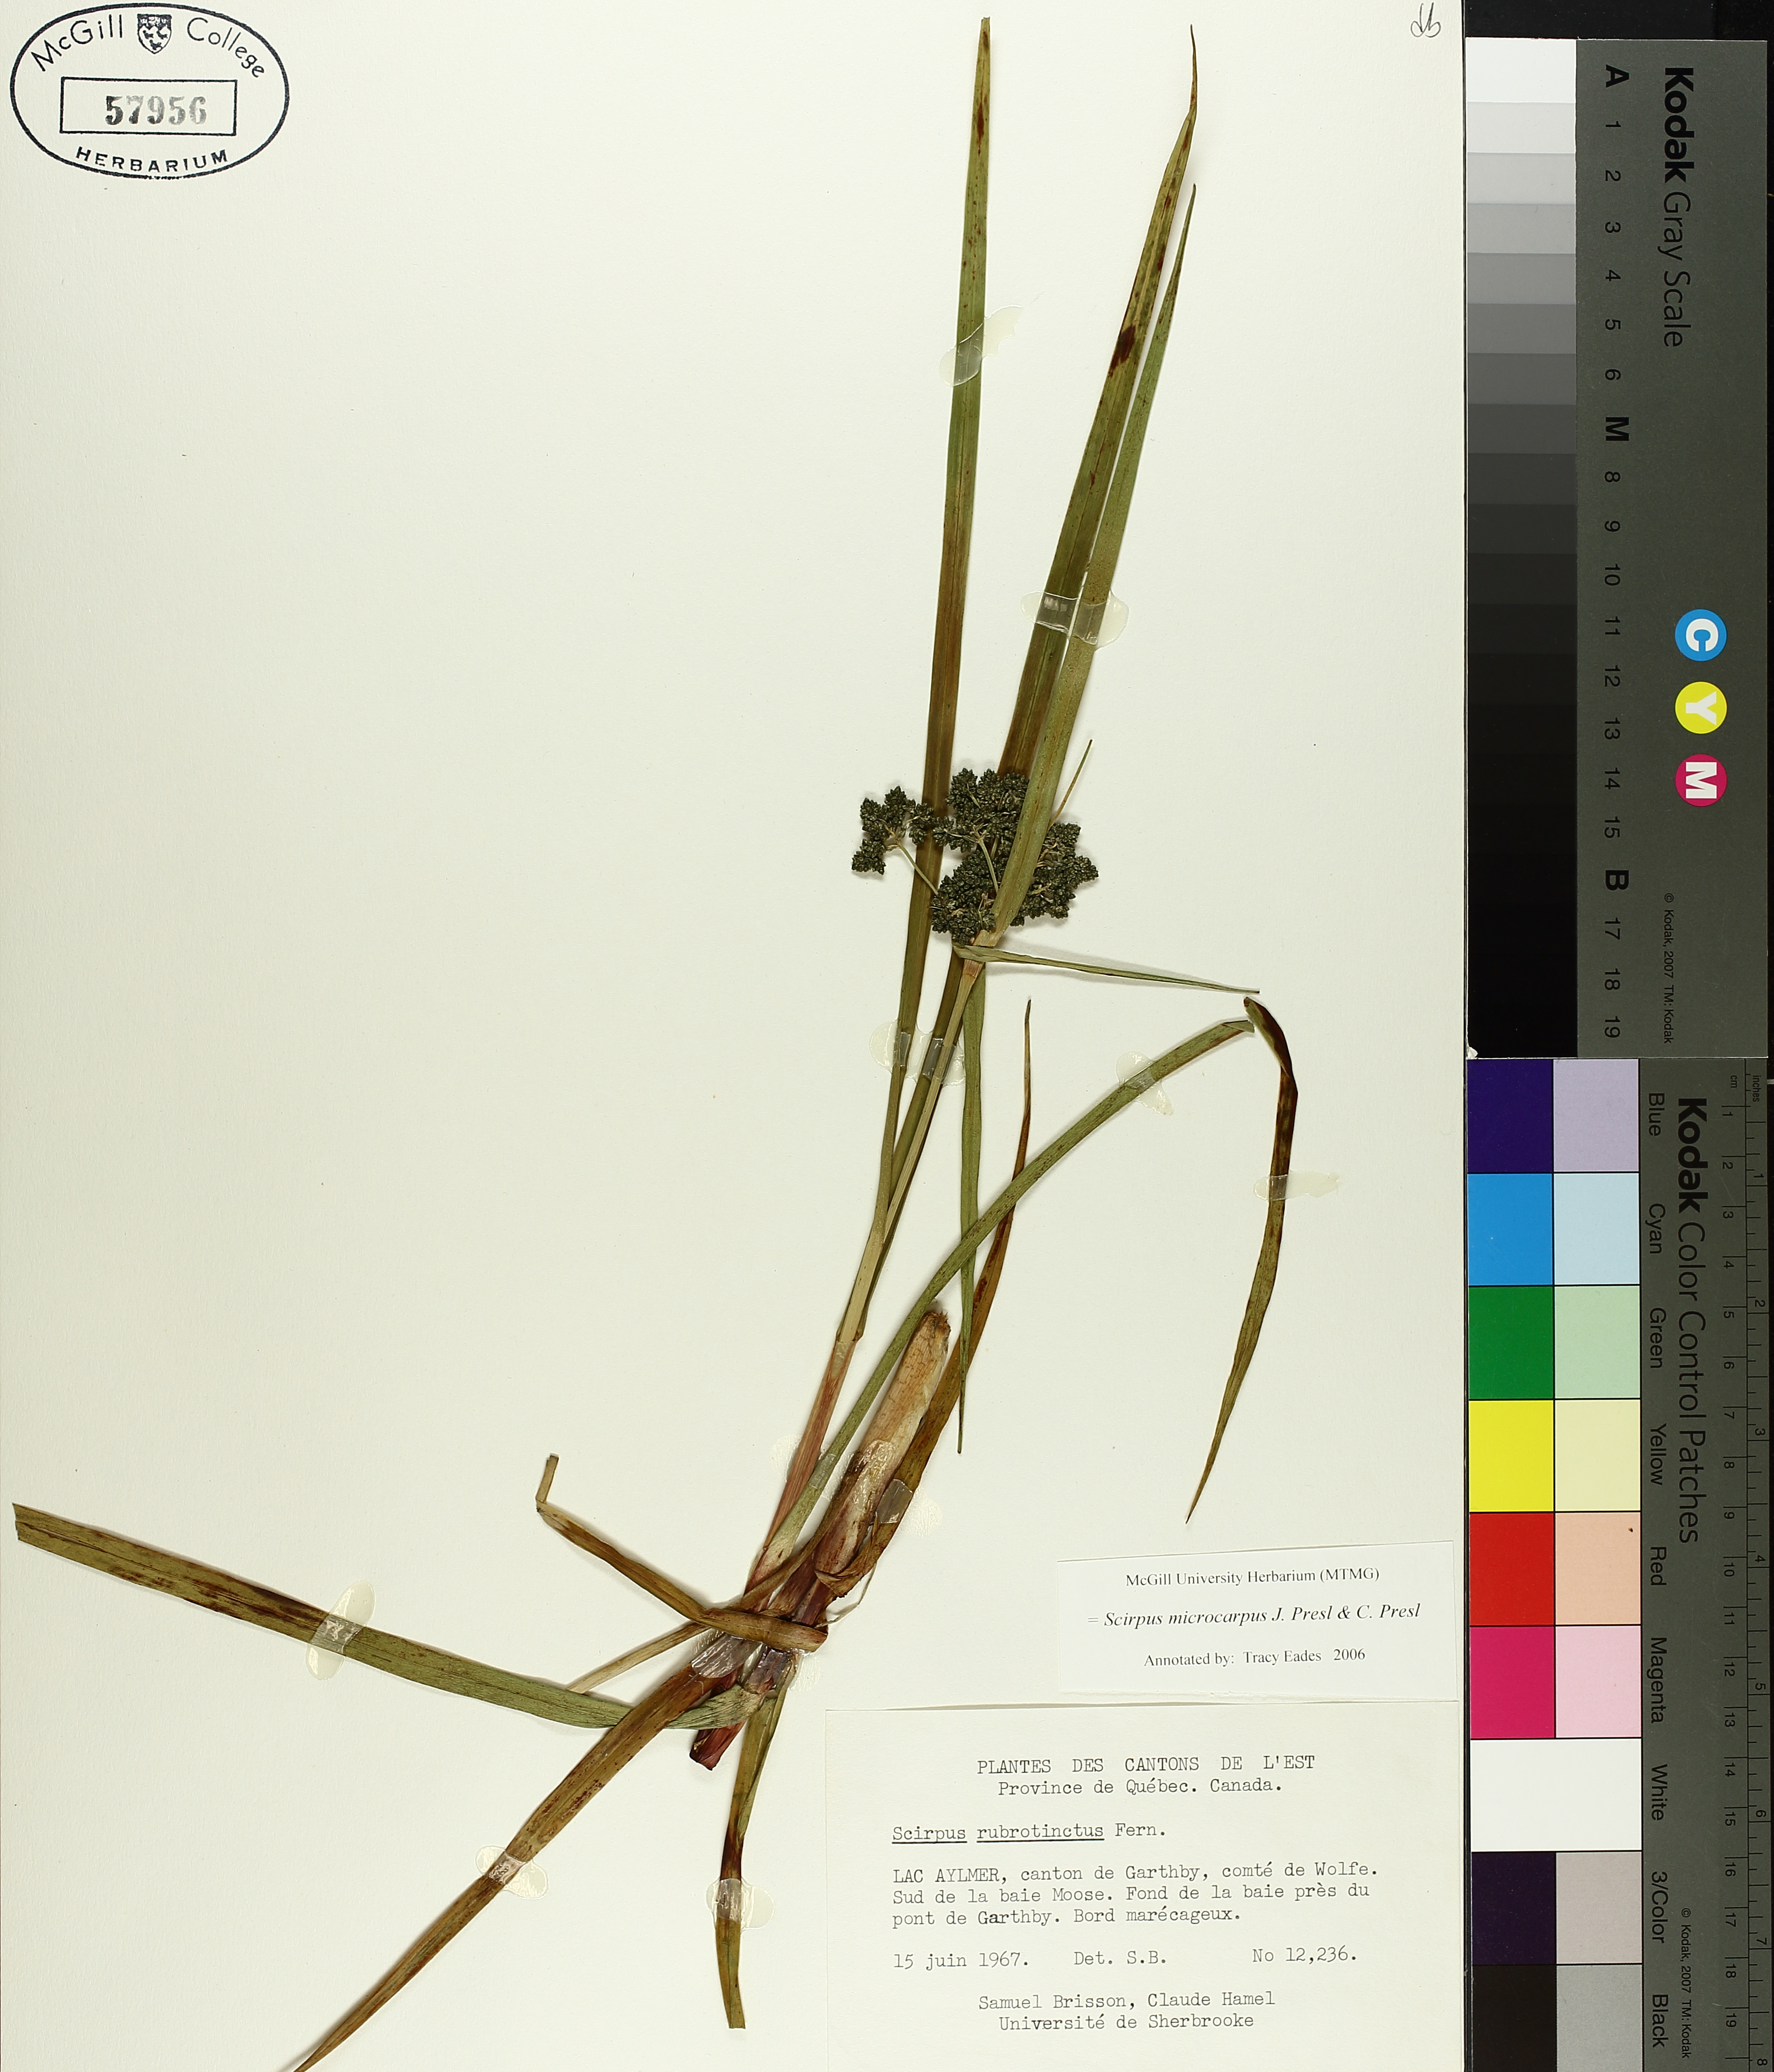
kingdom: Plantae
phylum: Tracheophyta
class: Liliopsida
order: Poales
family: Cyperaceae
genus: Scirpus
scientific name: Scirpus microcarpus
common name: Panicled bulrush
